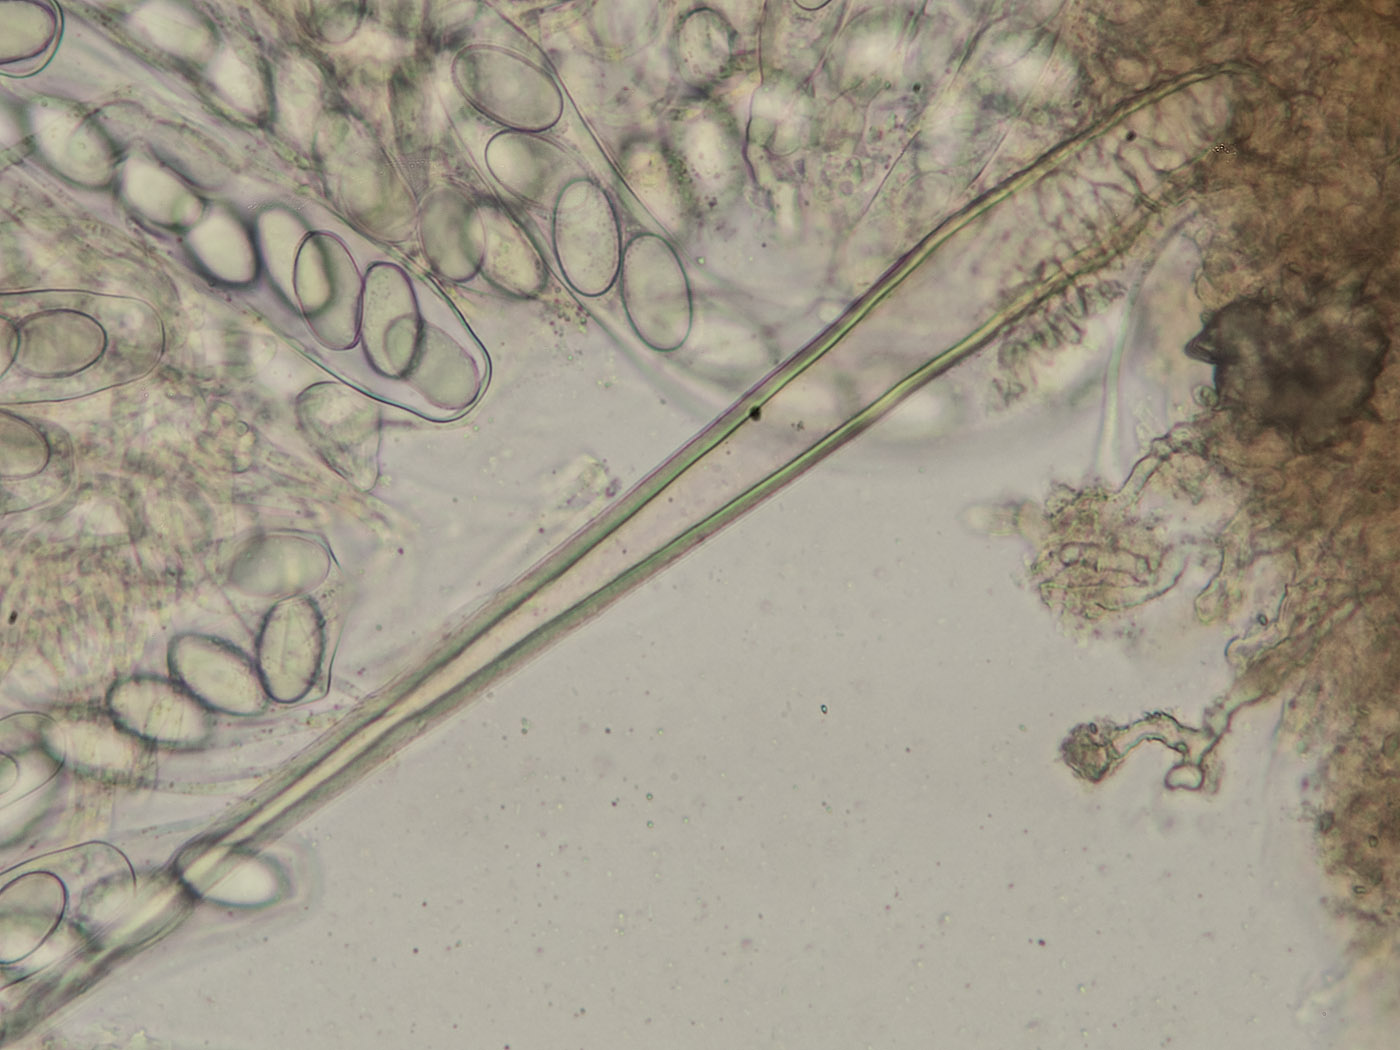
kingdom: Fungi
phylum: Ascomycota
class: Pezizomycetes
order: Pezizales
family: Ascodesmidaceae
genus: Lasiobolus
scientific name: Lasiobolus papillatus
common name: enradet øjebæger
